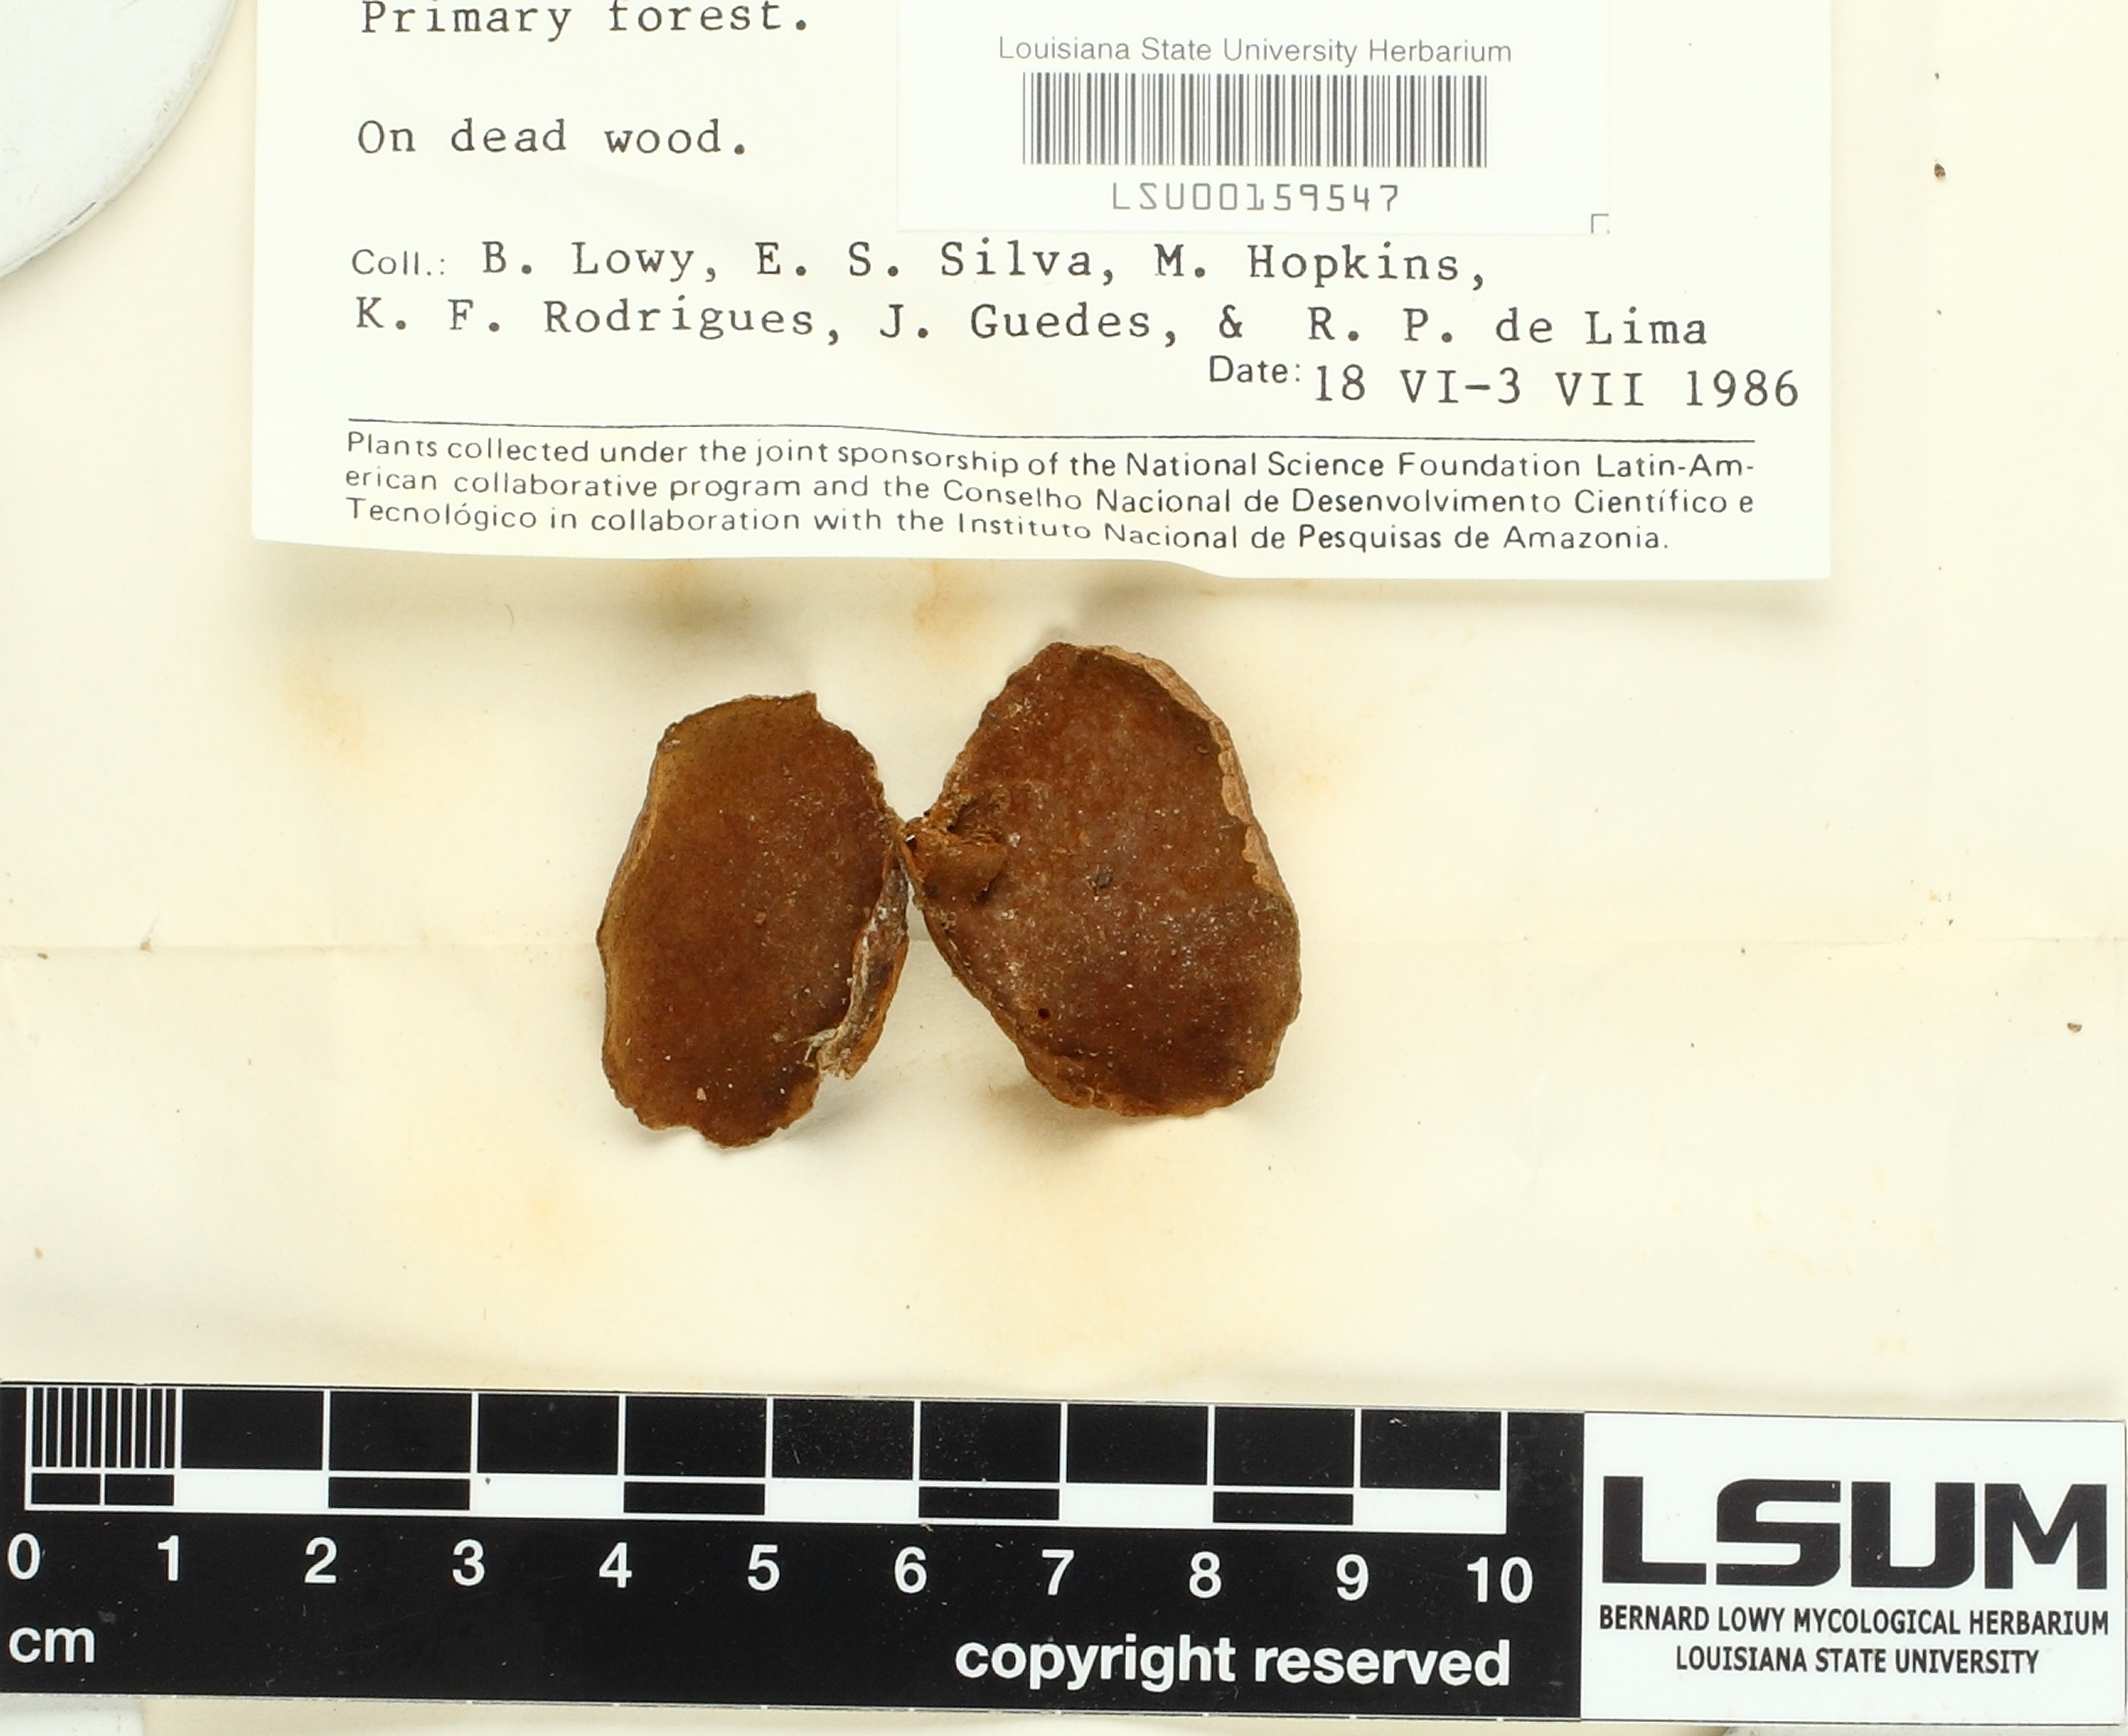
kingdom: Fungi
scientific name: Fungi
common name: Fungi
